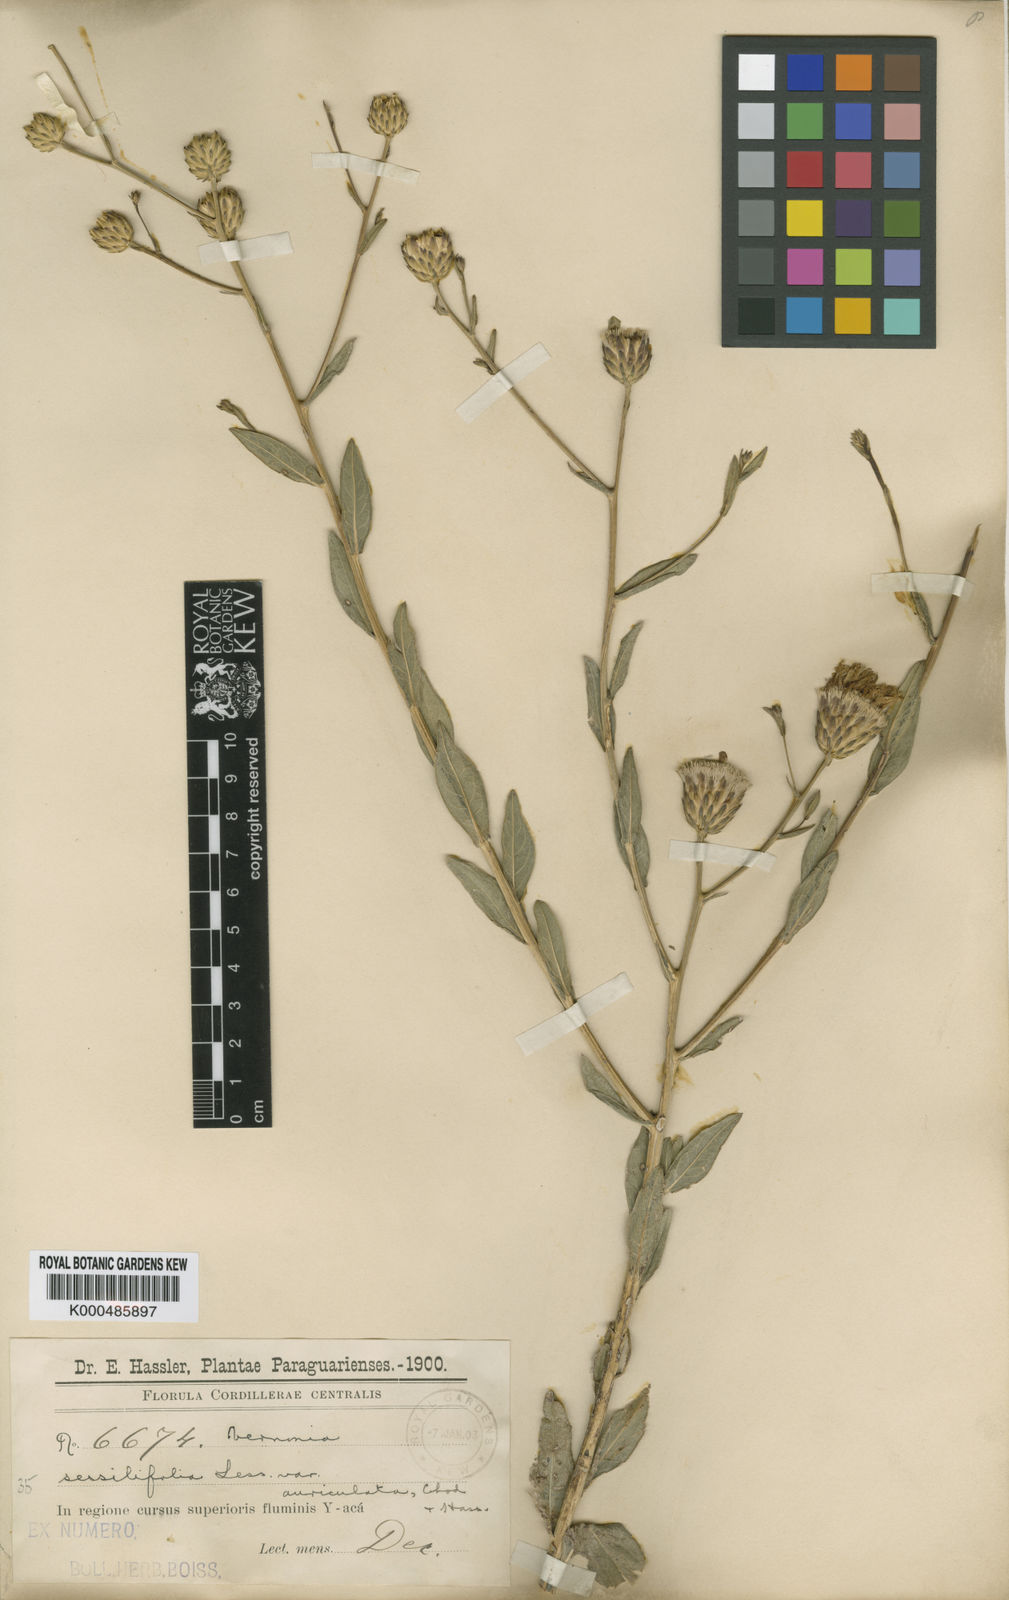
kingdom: Plantae
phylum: Tracheophyta
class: Magnoliopsida
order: Asterales
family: Asteraceae
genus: Lessingianthus
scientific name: Lessingianthus ramellae
